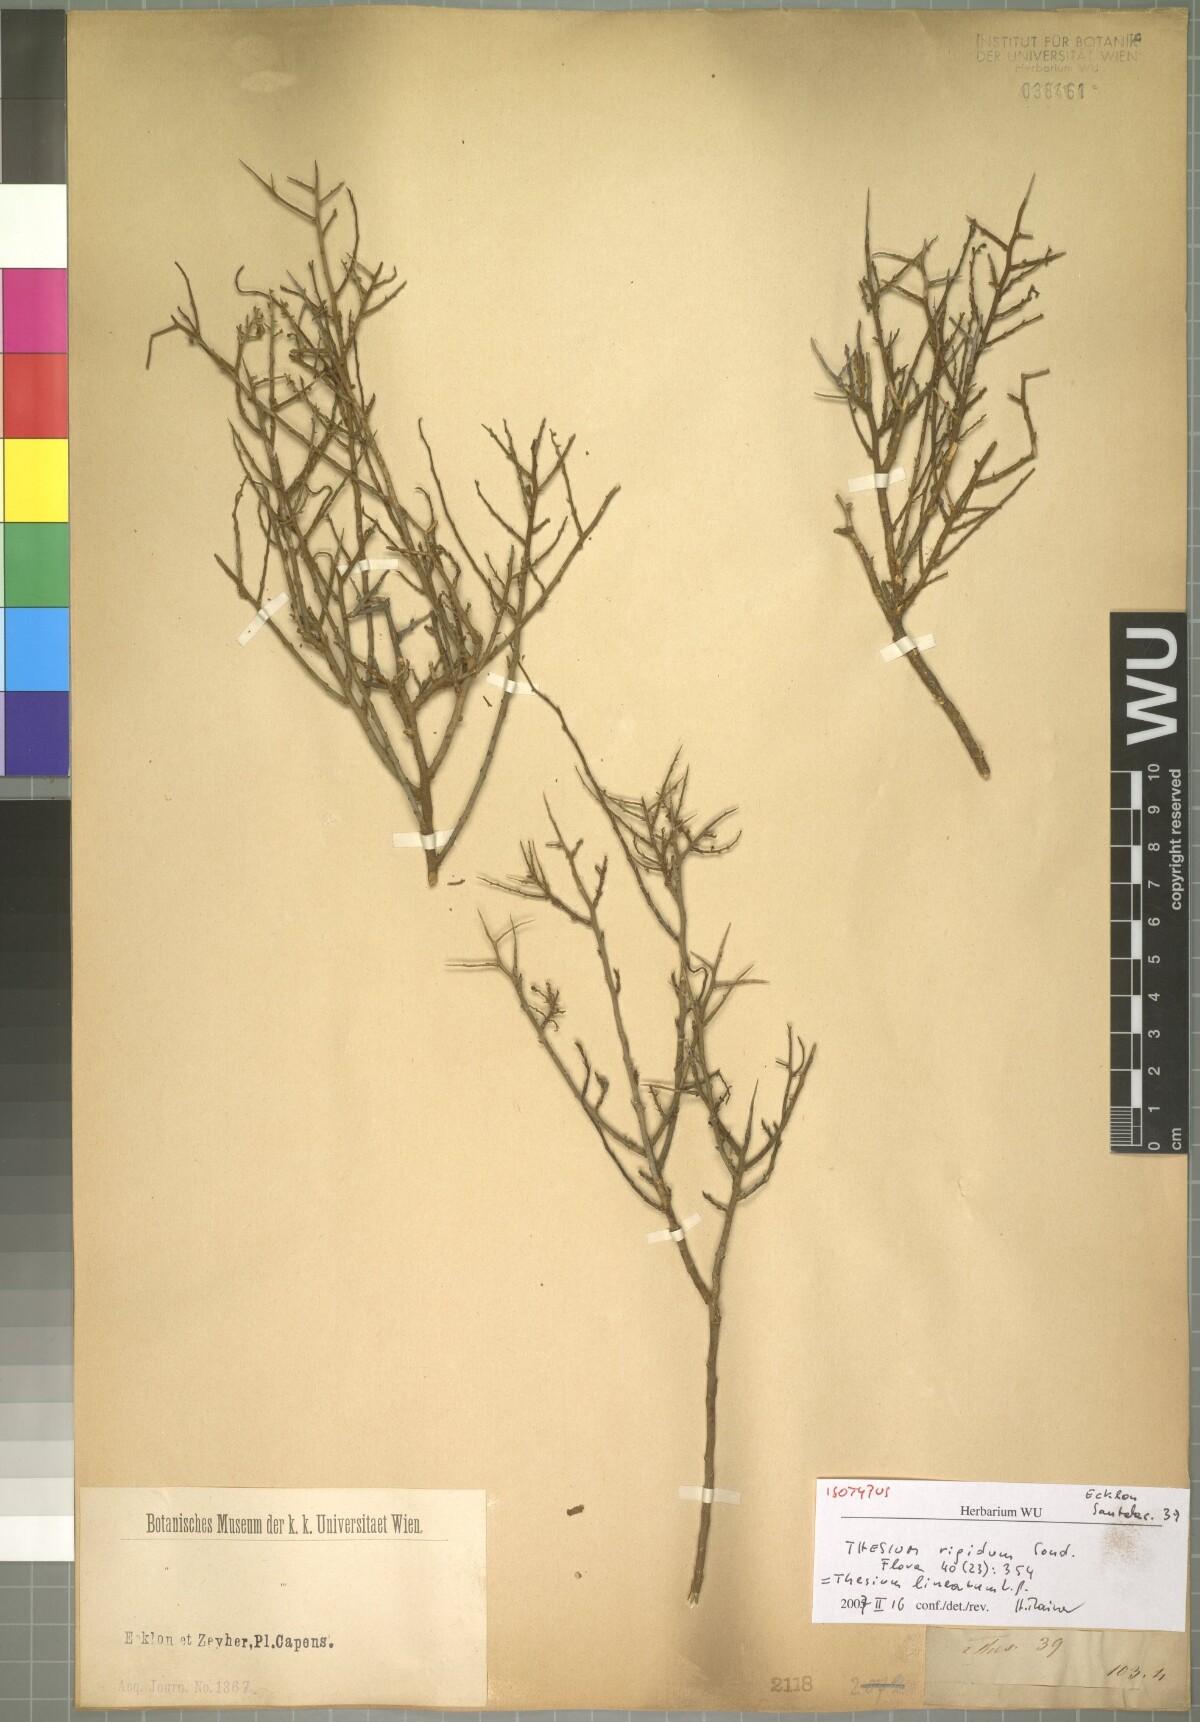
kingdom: Plantae
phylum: Tracheophyta
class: Magnoliopsida
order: Santalales
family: Thesiaceae
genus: Lacomucinaea
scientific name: Lacomucinaea lineata
